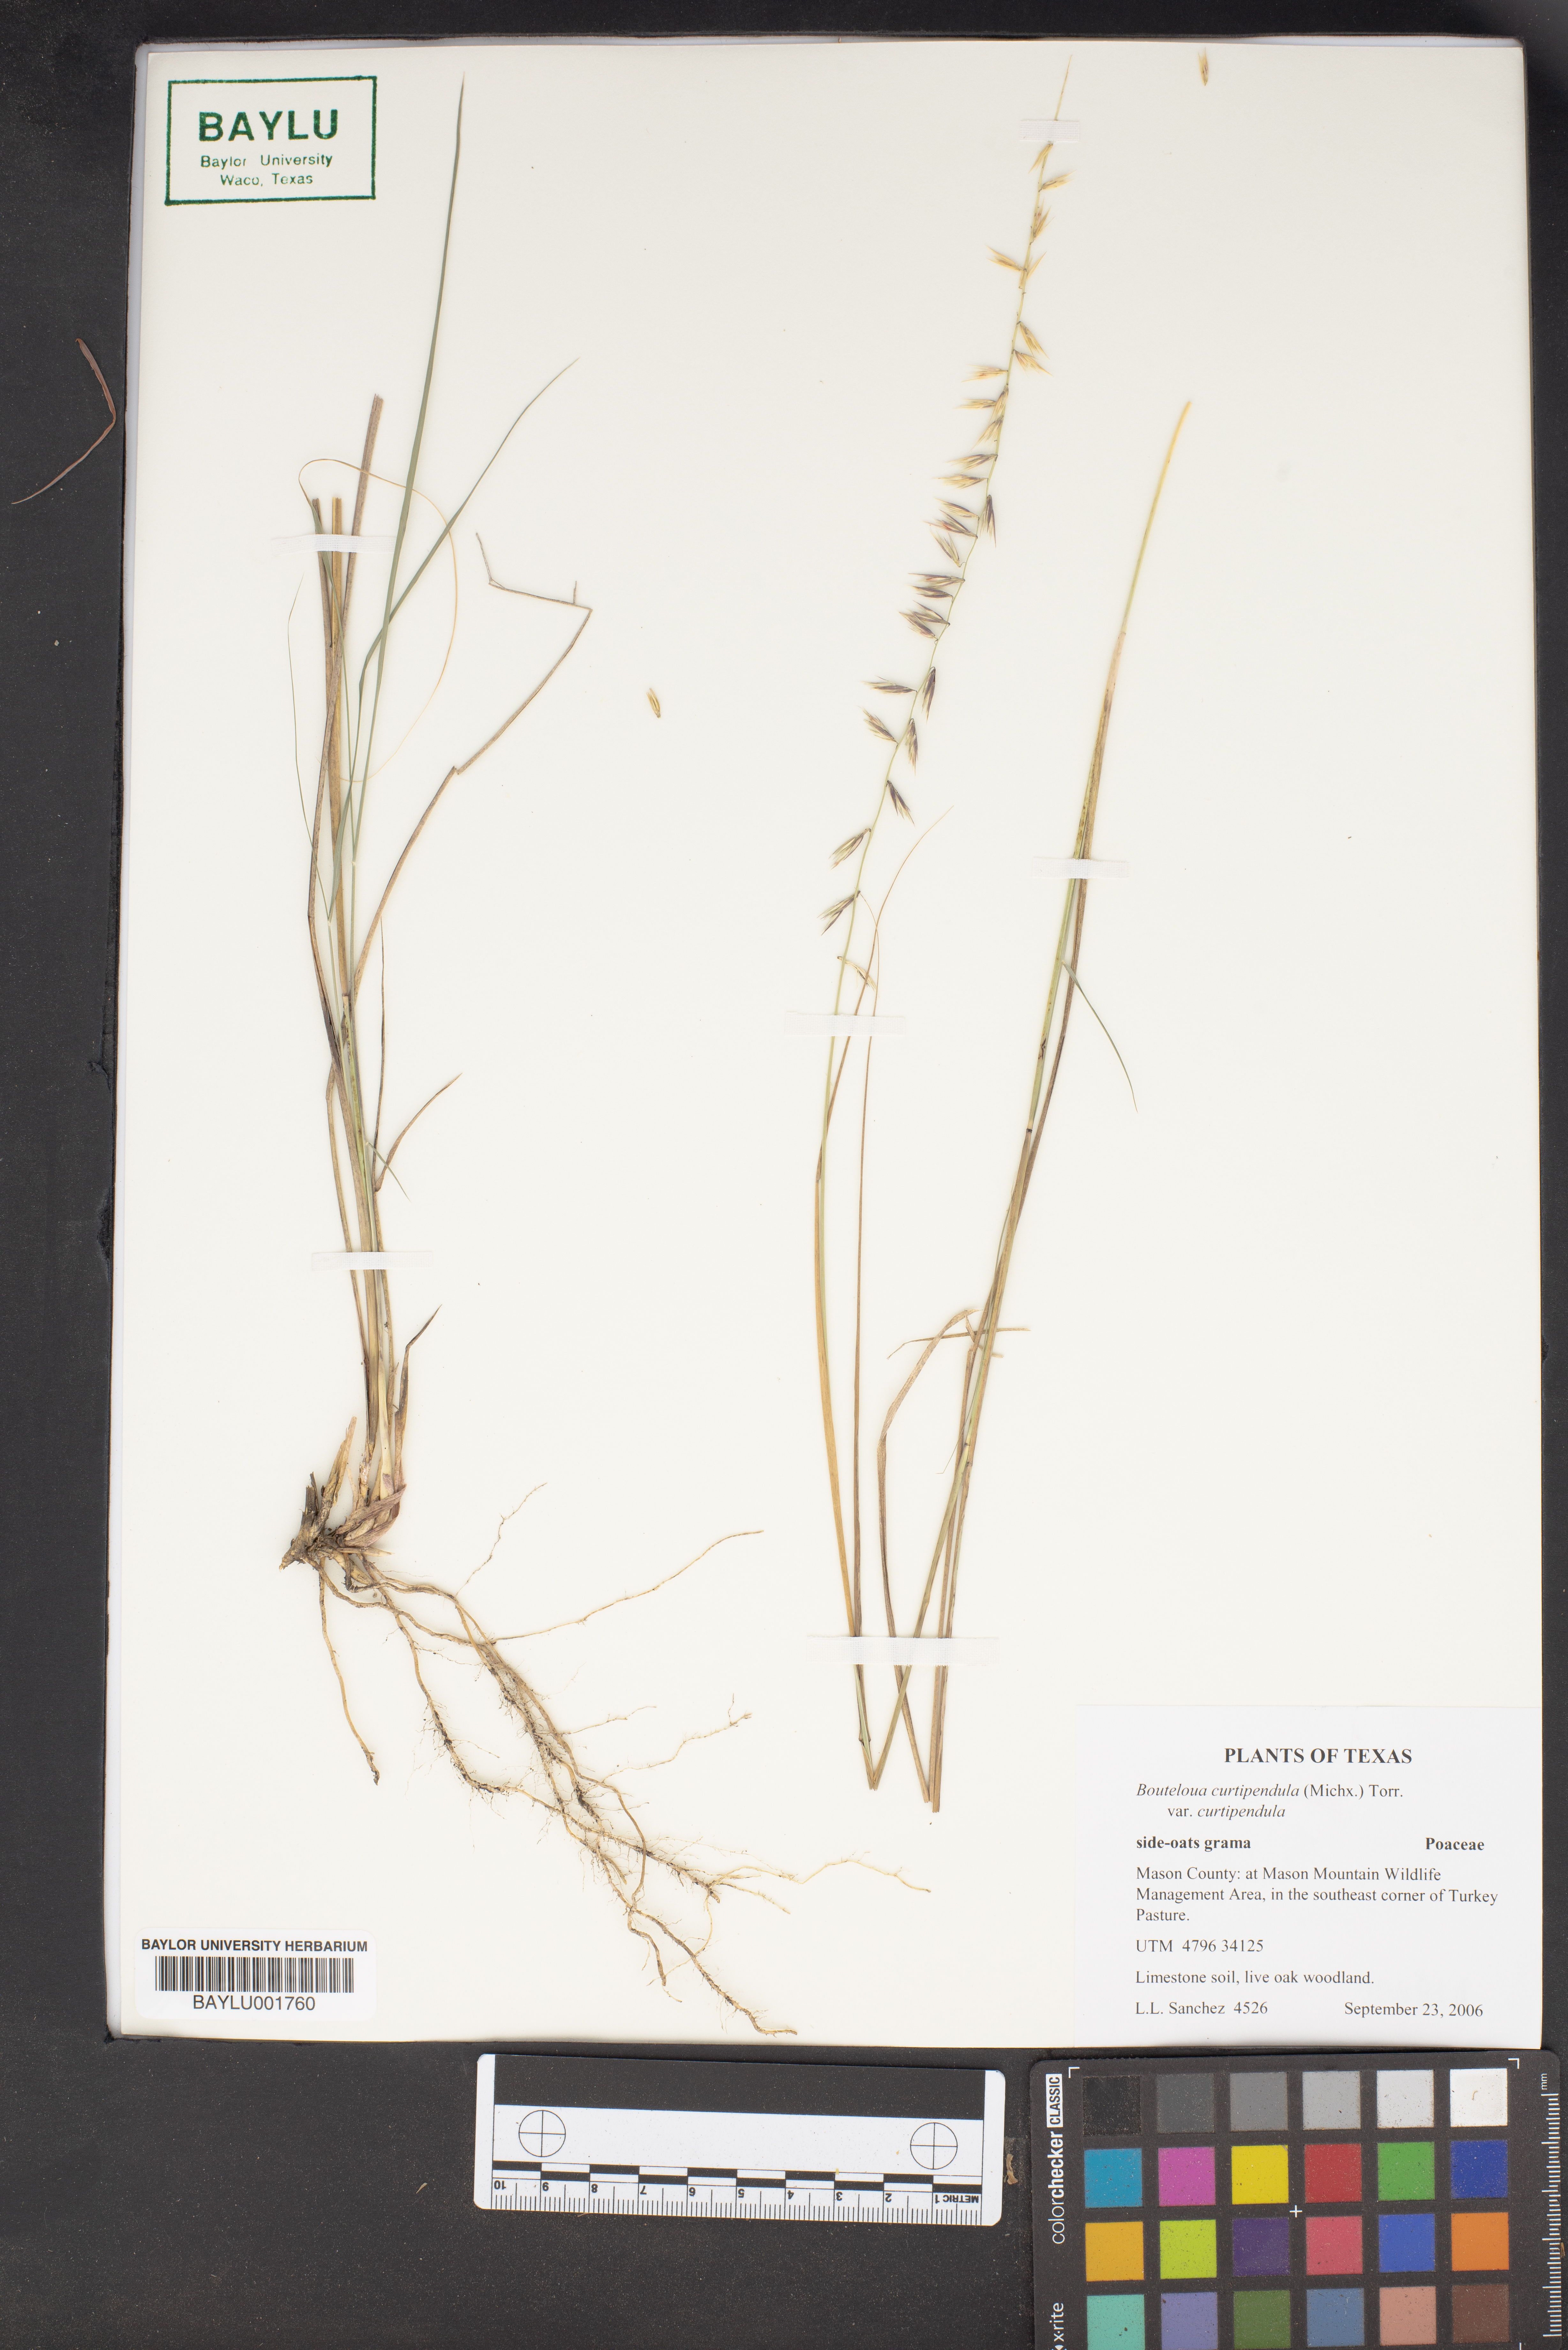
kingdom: Plantae
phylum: Tracheophyta
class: Liliopsida
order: Poales
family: Poaceae
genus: Bouteloua
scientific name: Bouteloua curtipendula
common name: Side-oats grama
